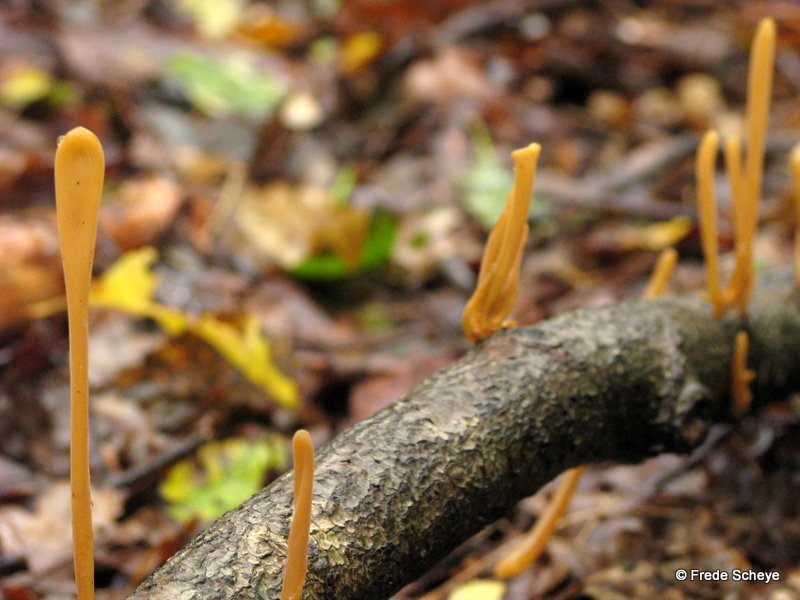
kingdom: Fungi
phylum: Basidiomycota
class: Agaricomycetes
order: Agaricales
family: Typhulaceae
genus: Typhula
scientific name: Typhula fistulosa
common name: pibet rørkølle
